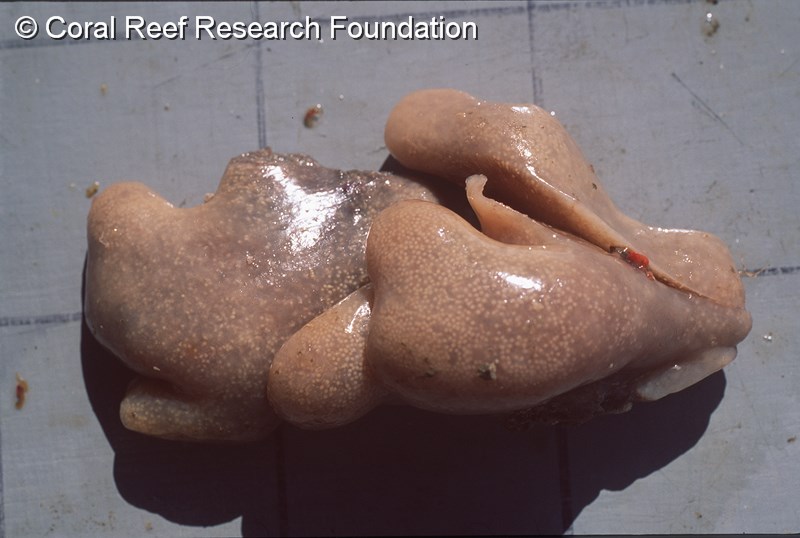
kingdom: Animalia
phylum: Chordata
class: Ascidiacea
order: Aplousobranchia
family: Polyclinidae
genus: Synoicum
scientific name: Synoicum
